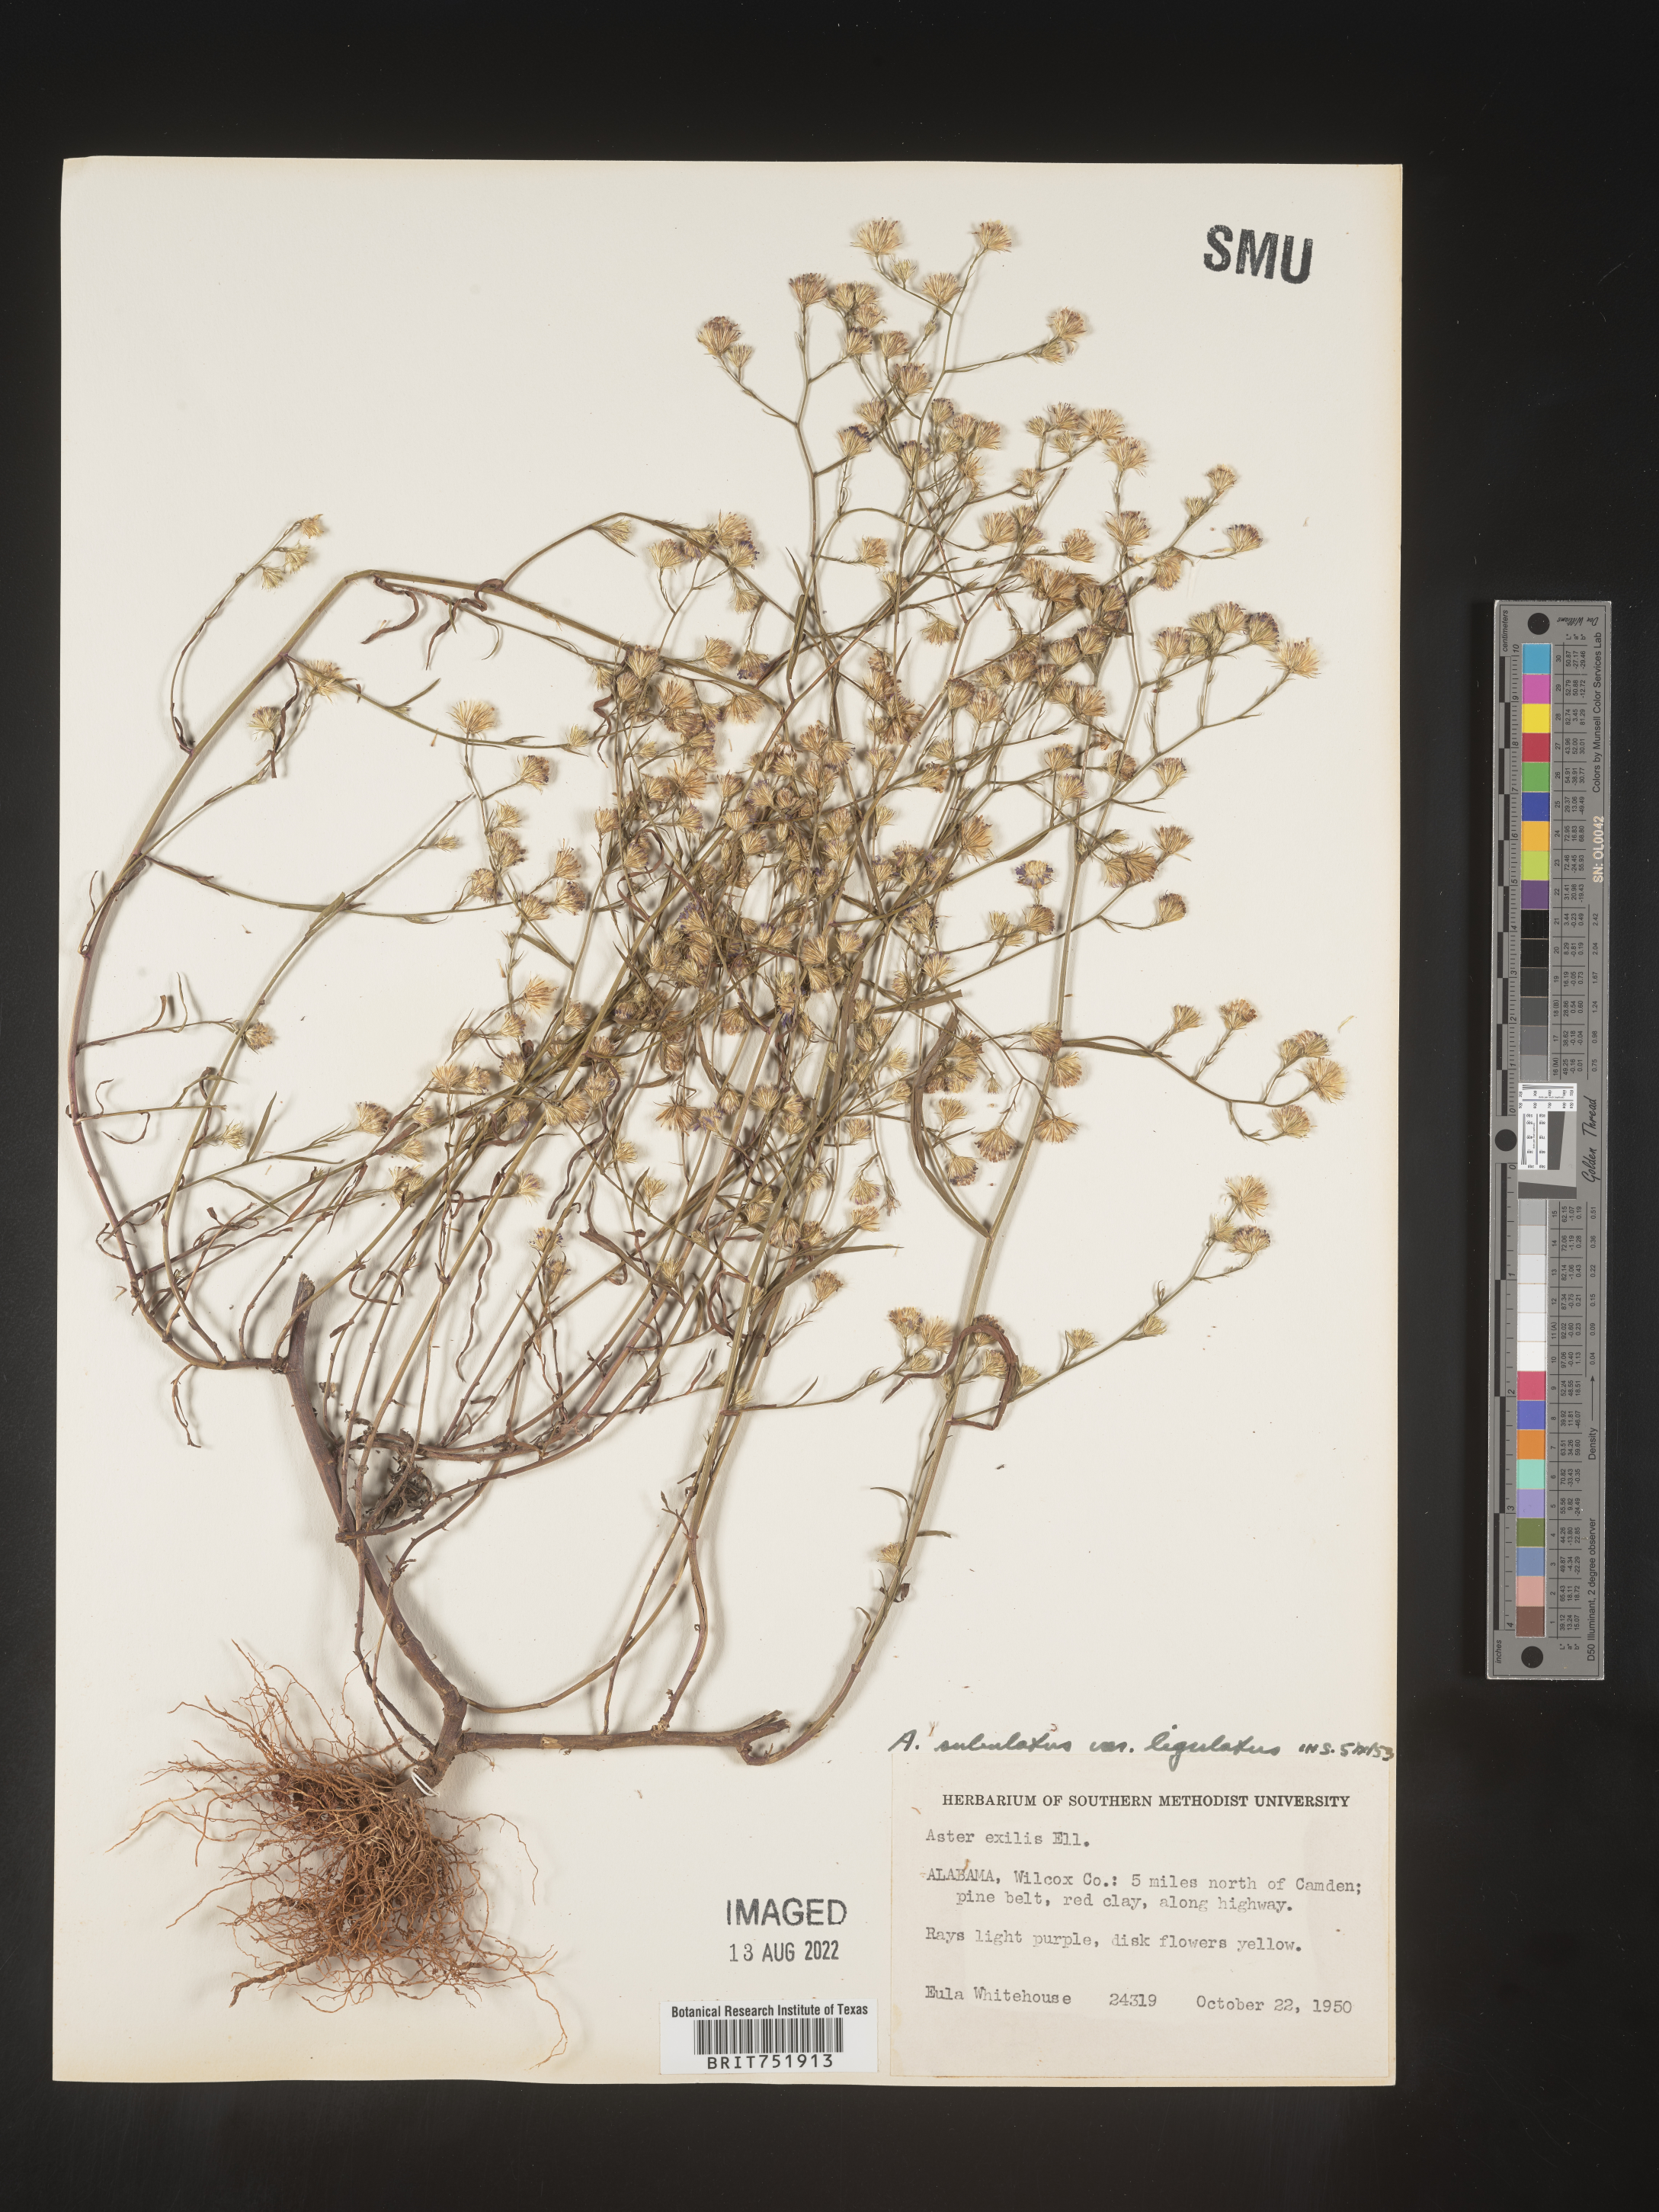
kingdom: Plantae
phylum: Tracheophyta
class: Magnoliopsida
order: Asterales
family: Asteraceae
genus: Symphyotrichum
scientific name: Symphyotrichum divaricatum
